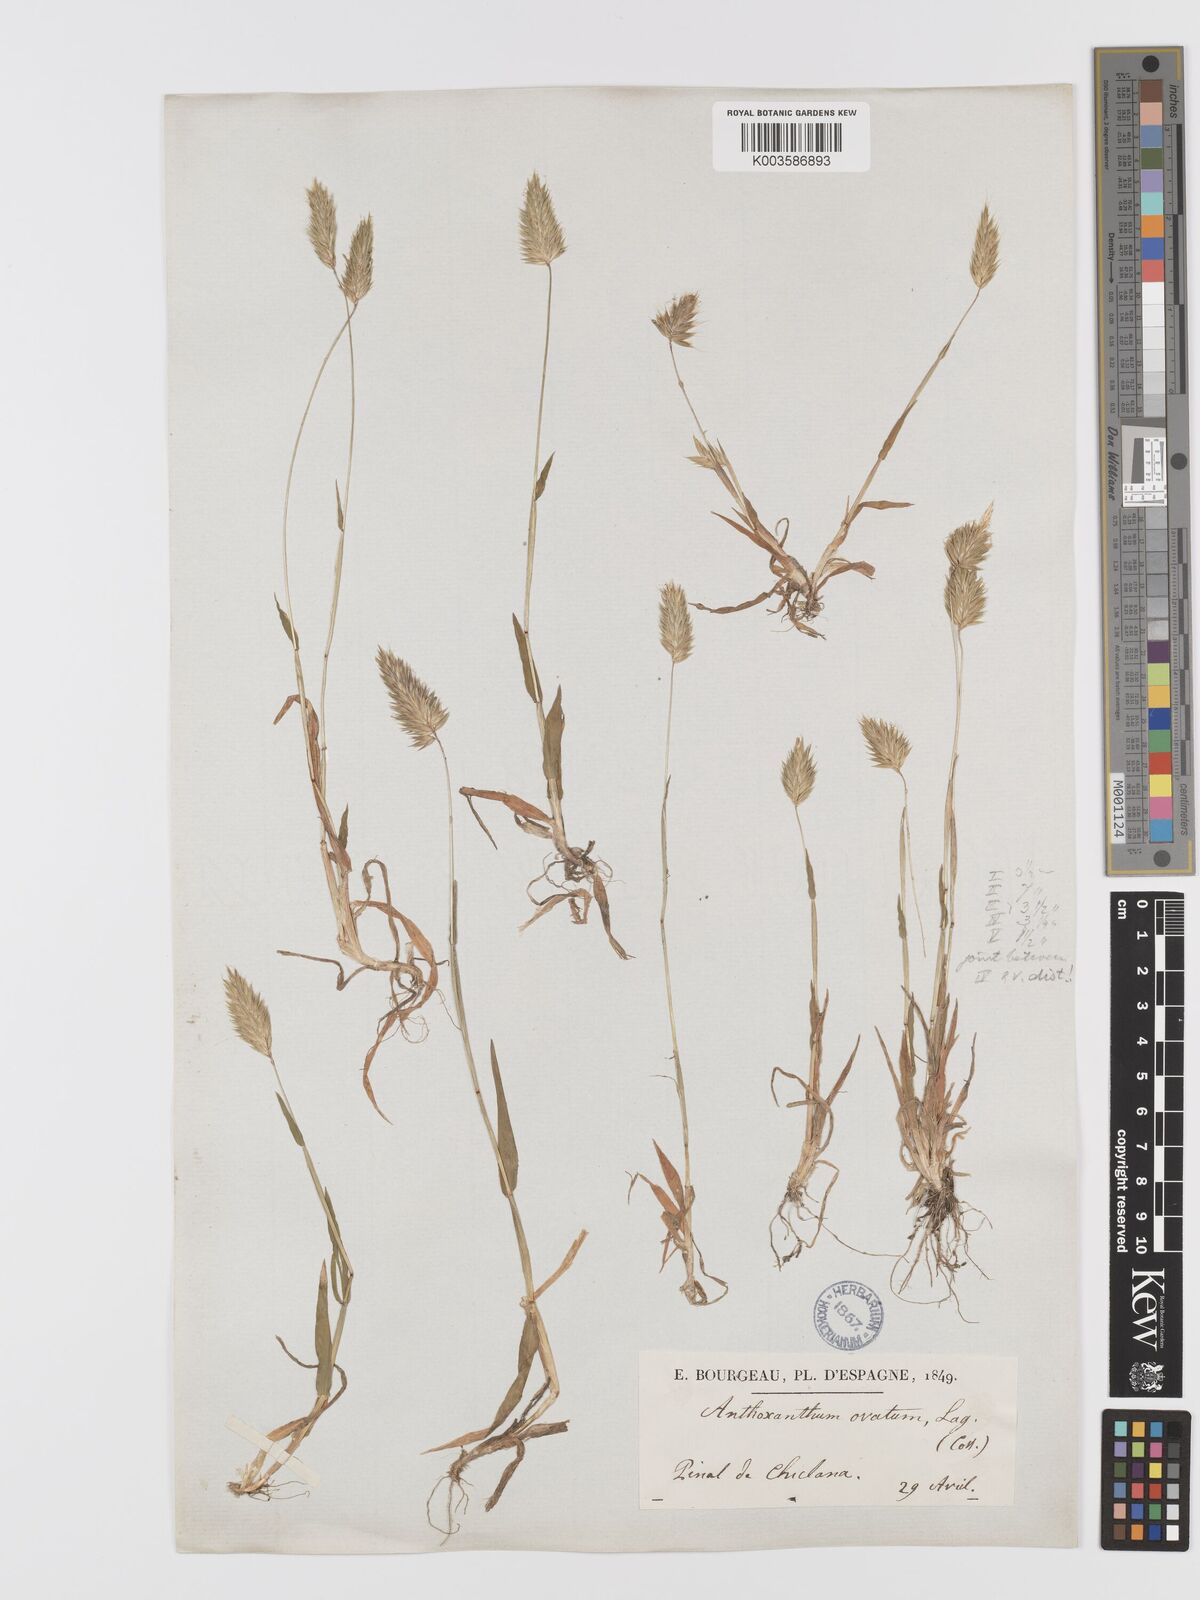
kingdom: Plantae
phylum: Tracheophyta
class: Liliopsida
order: Poales
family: Poaceae
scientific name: Poaceae
